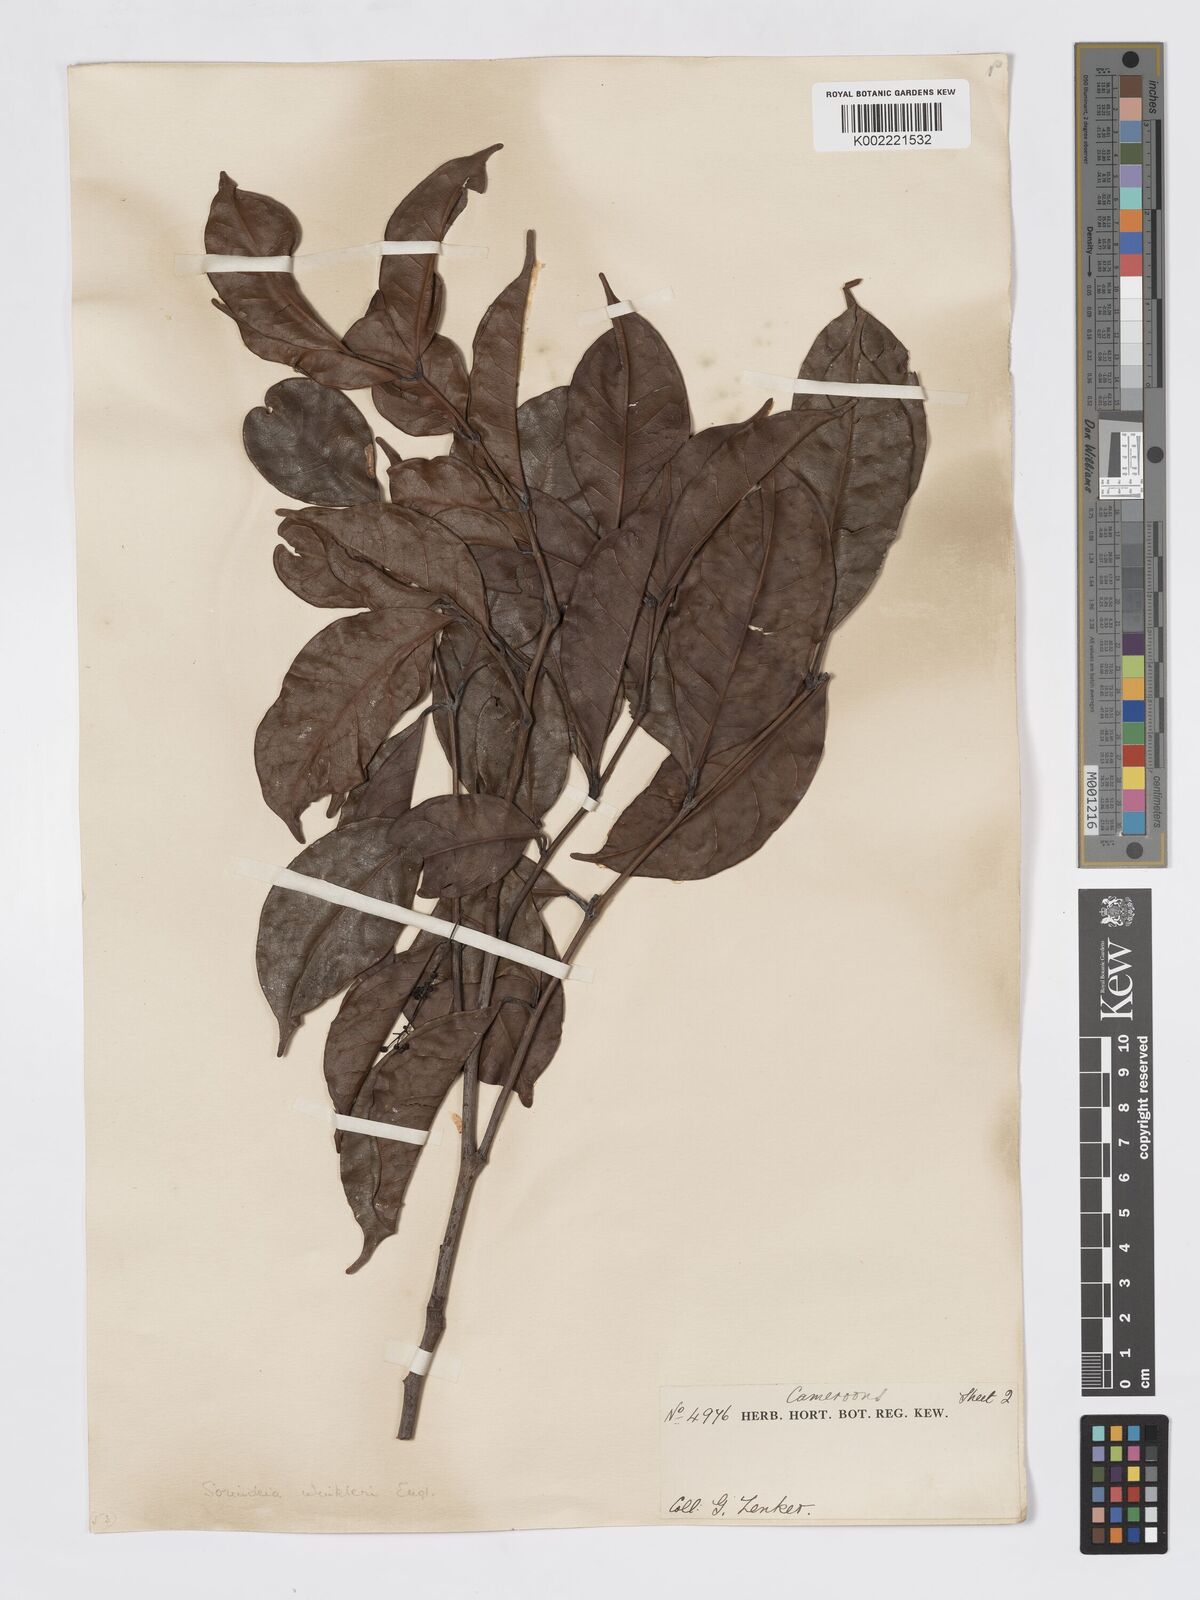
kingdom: Plantae
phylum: Tracheophyta
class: Magnoliopsida
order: Sapindales
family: Burseraceae
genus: Pachylobus
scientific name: Pachylobus trimerus
